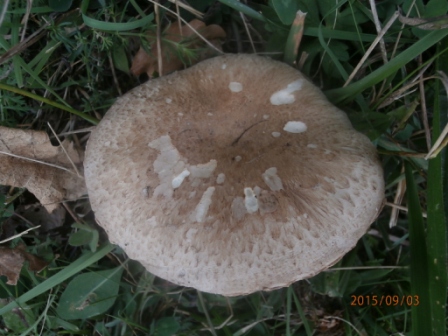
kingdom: Fungi
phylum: Basidiomycota
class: Agaricomycetes
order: Agaricales
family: Agaricaceae
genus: Agaricus
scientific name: Agaricus cupreobrunneus
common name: kobberbrun champignon
